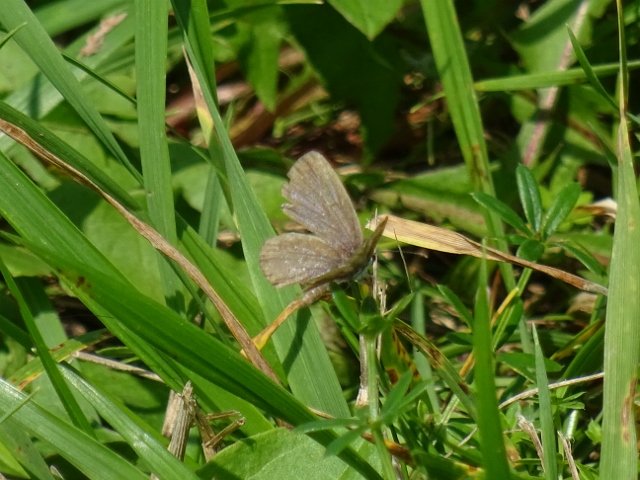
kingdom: Animalia
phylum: Arthropoda
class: Insecta
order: Lepidoptera
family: Lycaenidae
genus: Elkalyce
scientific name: Elkalyce comyntas
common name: Eastern Tailed-Blue
